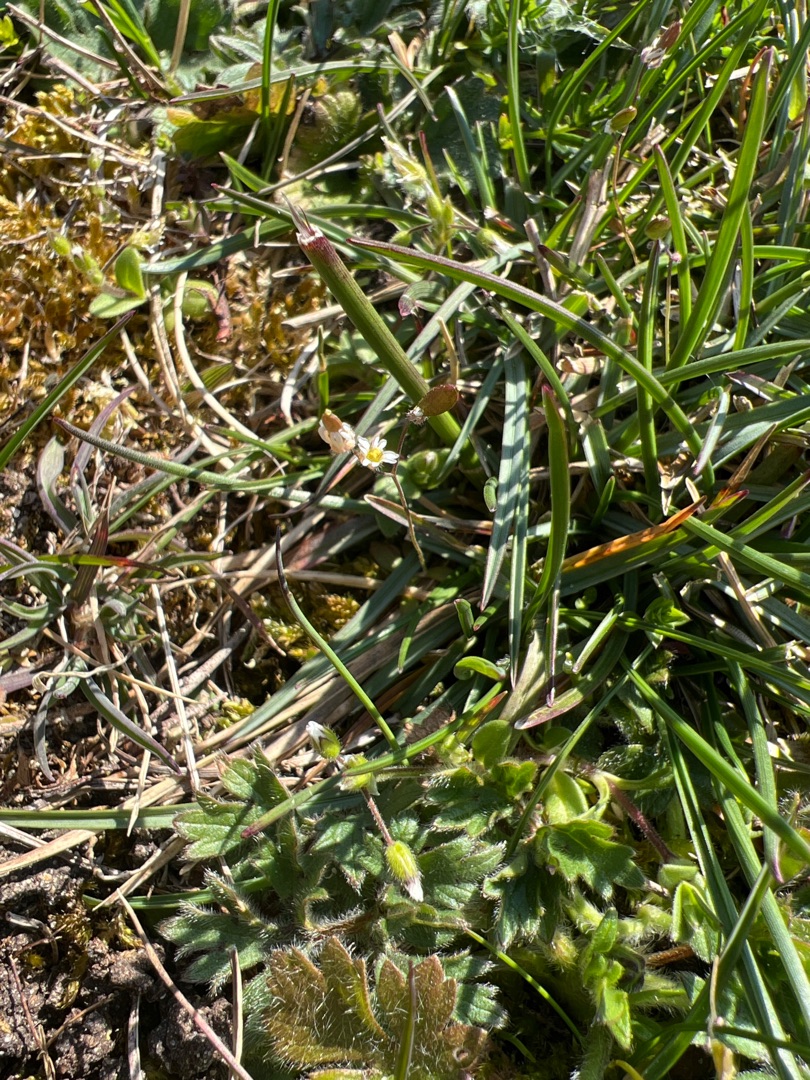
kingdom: Plantae
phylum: Tracheophyta
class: Magnoliopsida
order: Brassicales
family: Brassicaceae
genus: Draba
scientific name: Draba verna
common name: Vår-gæslingeblomst
